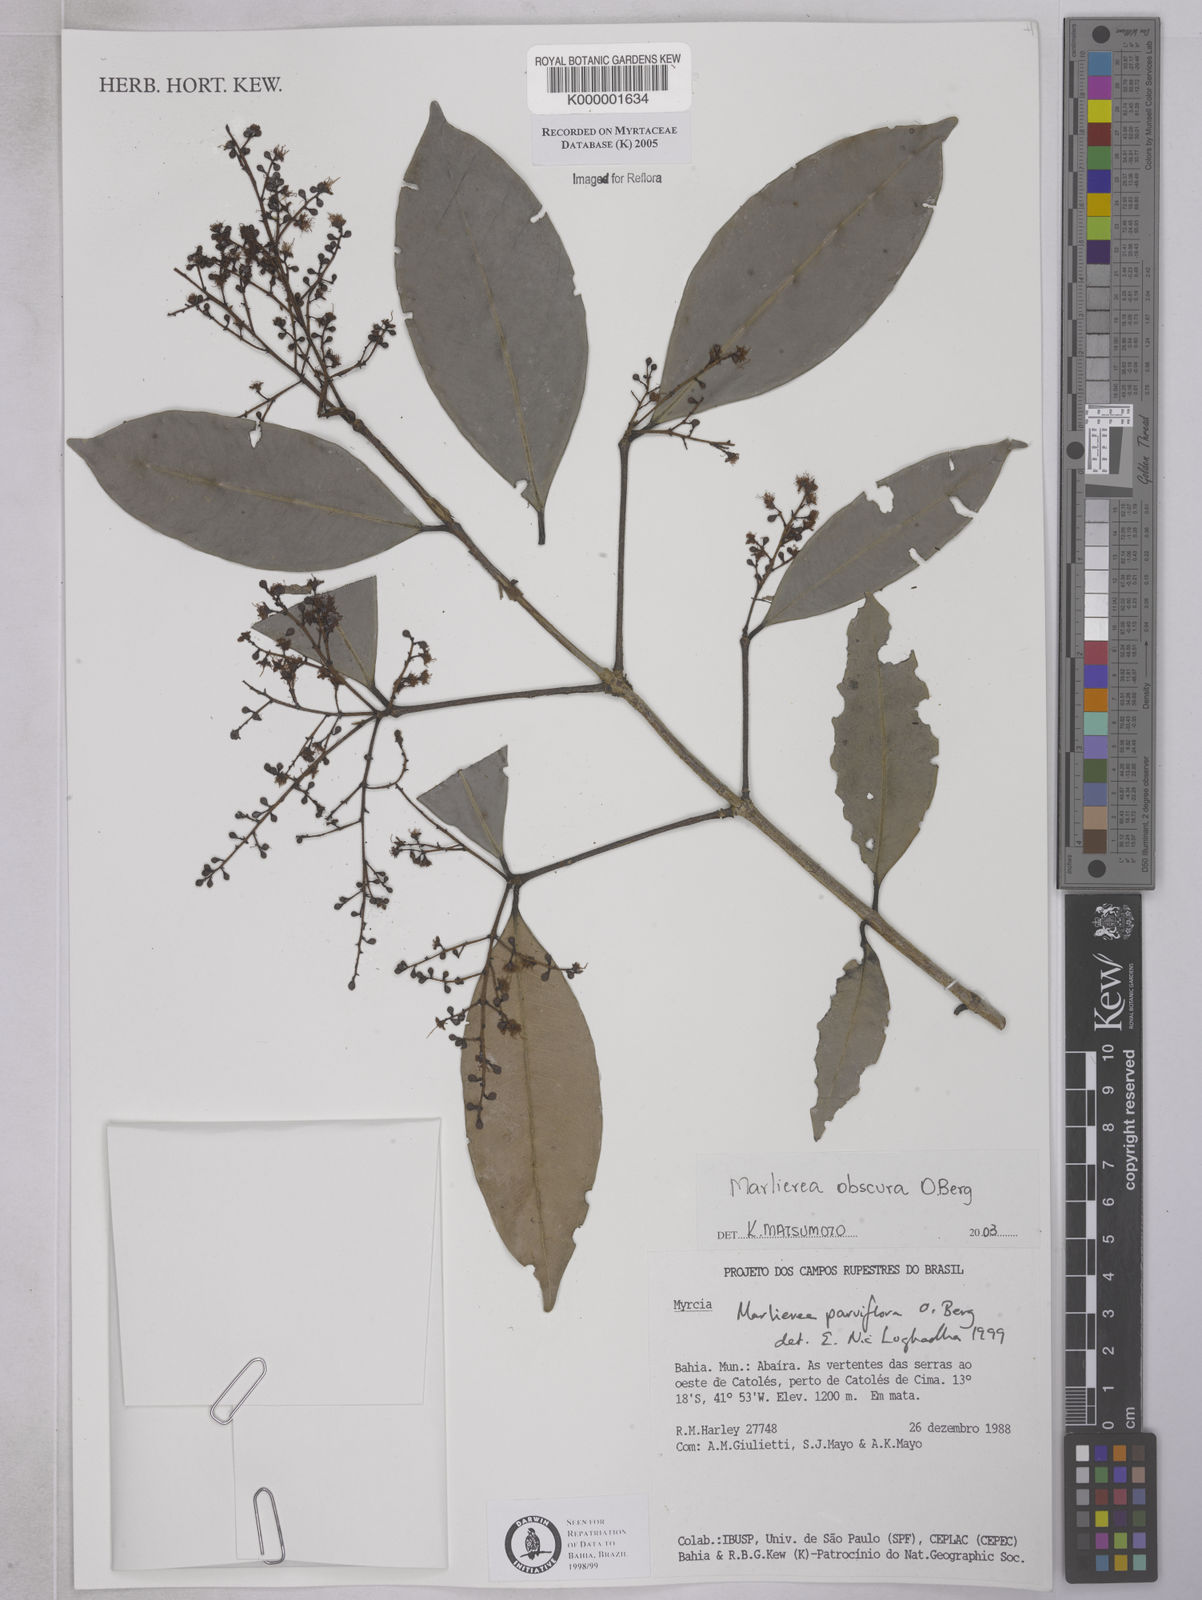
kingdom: Plantae
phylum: Tracheophyta
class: Magnoliopsida
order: Myrtales
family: Myrtaceae
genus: Myrcia
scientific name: Myrcia excoriata
